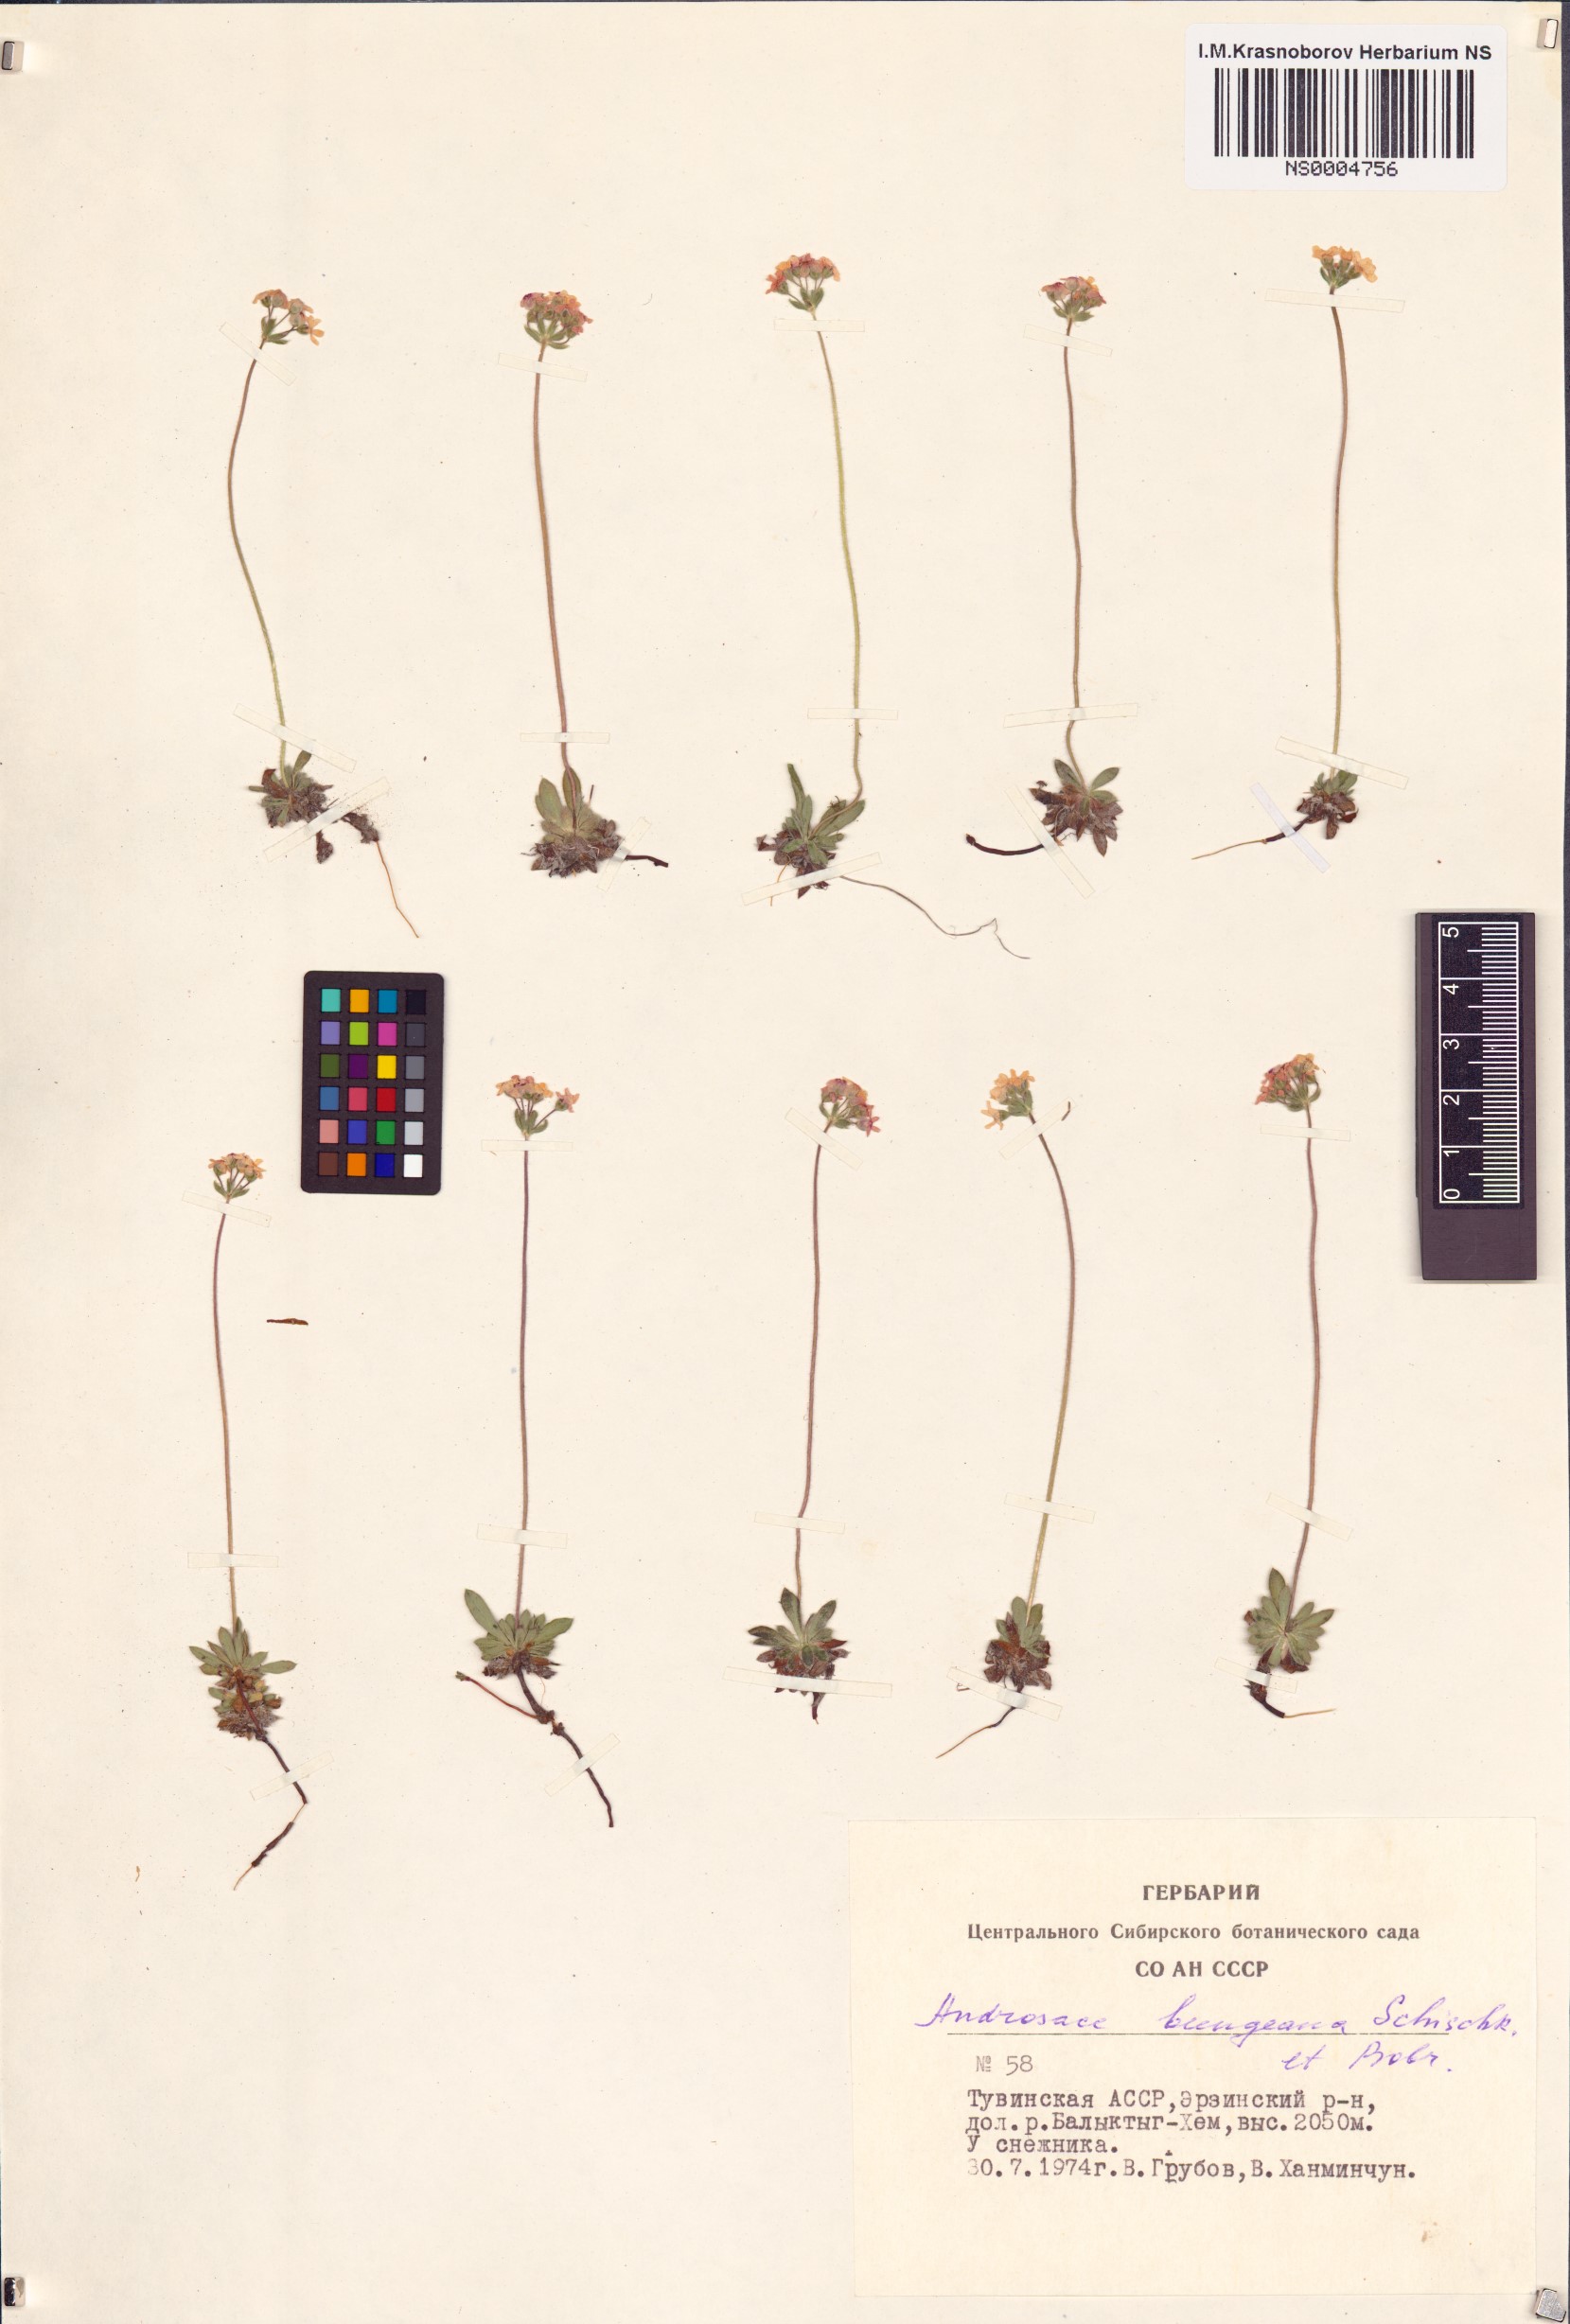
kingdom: Plantae
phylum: Tracheophyta
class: Magnoliopsida
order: Ericales
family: Primulaceae
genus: Androsace
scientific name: Androsace bungeana
